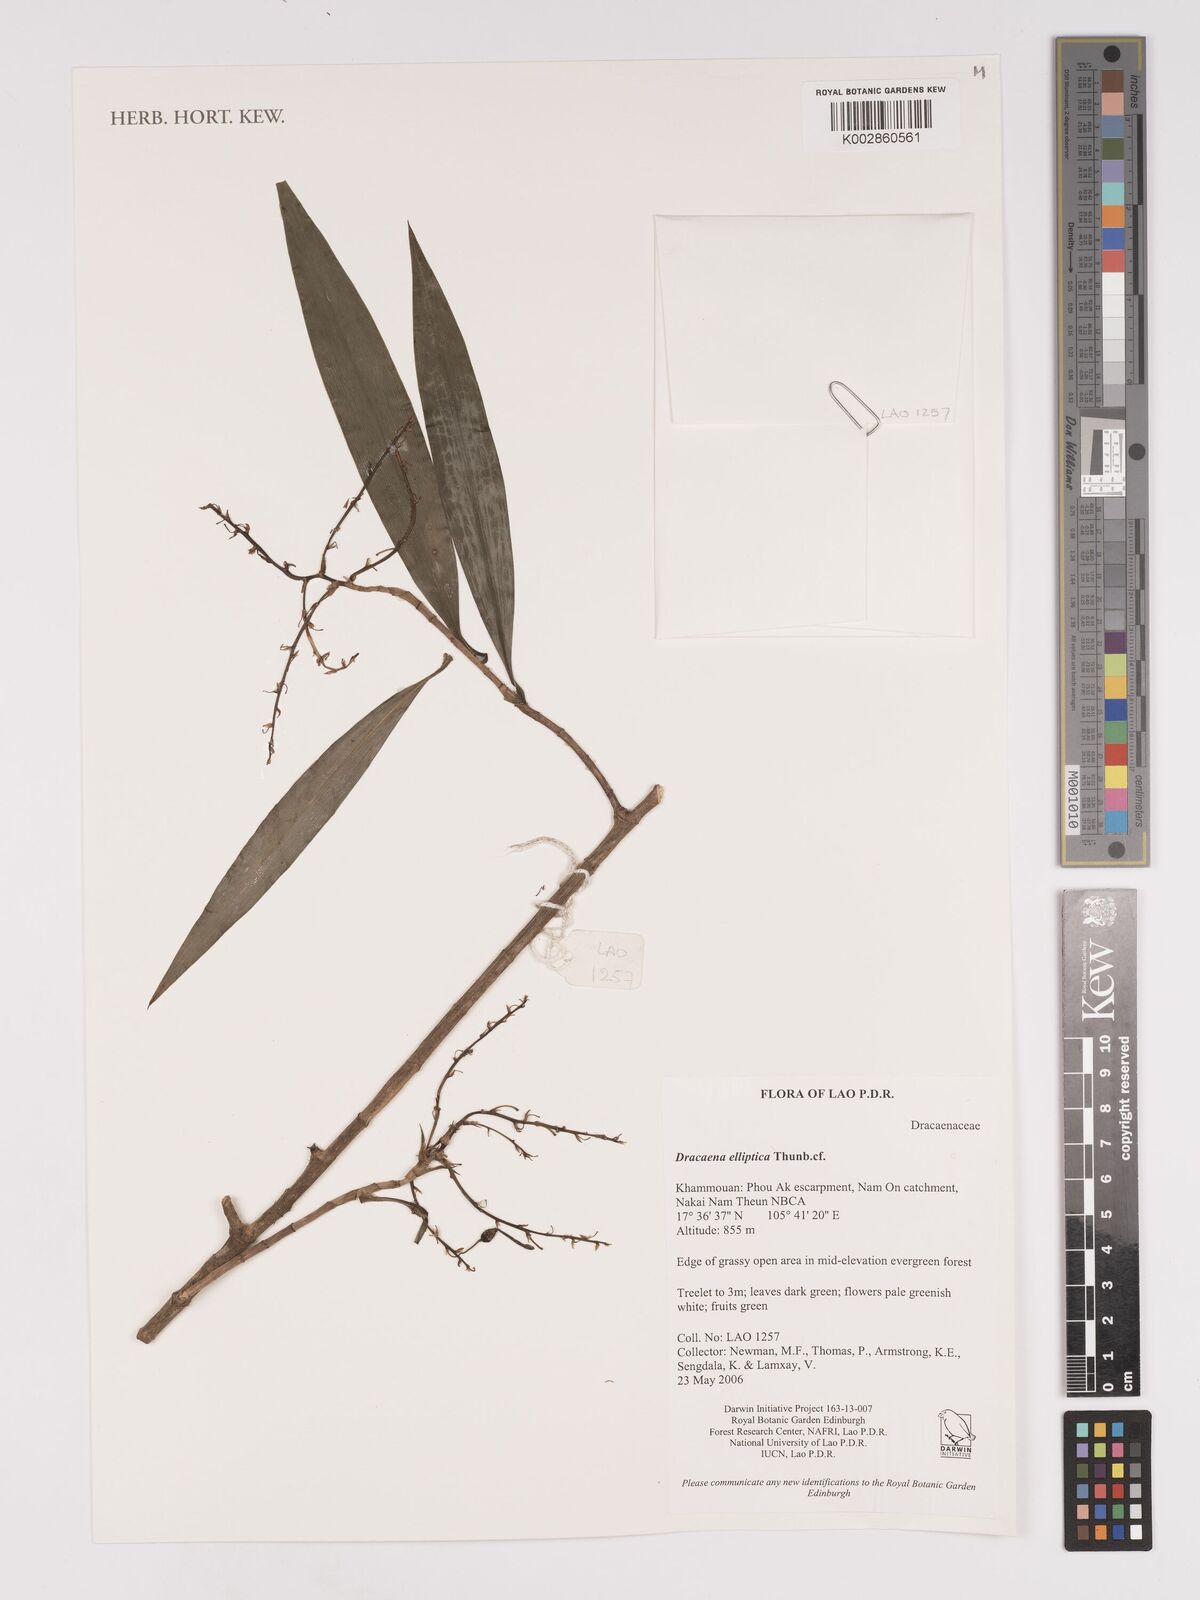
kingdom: Plantae
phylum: Tracheophyta
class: Liliopsida
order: Asparagales
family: Asparagaceae
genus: Dracaena
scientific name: Dracaena elliptica
